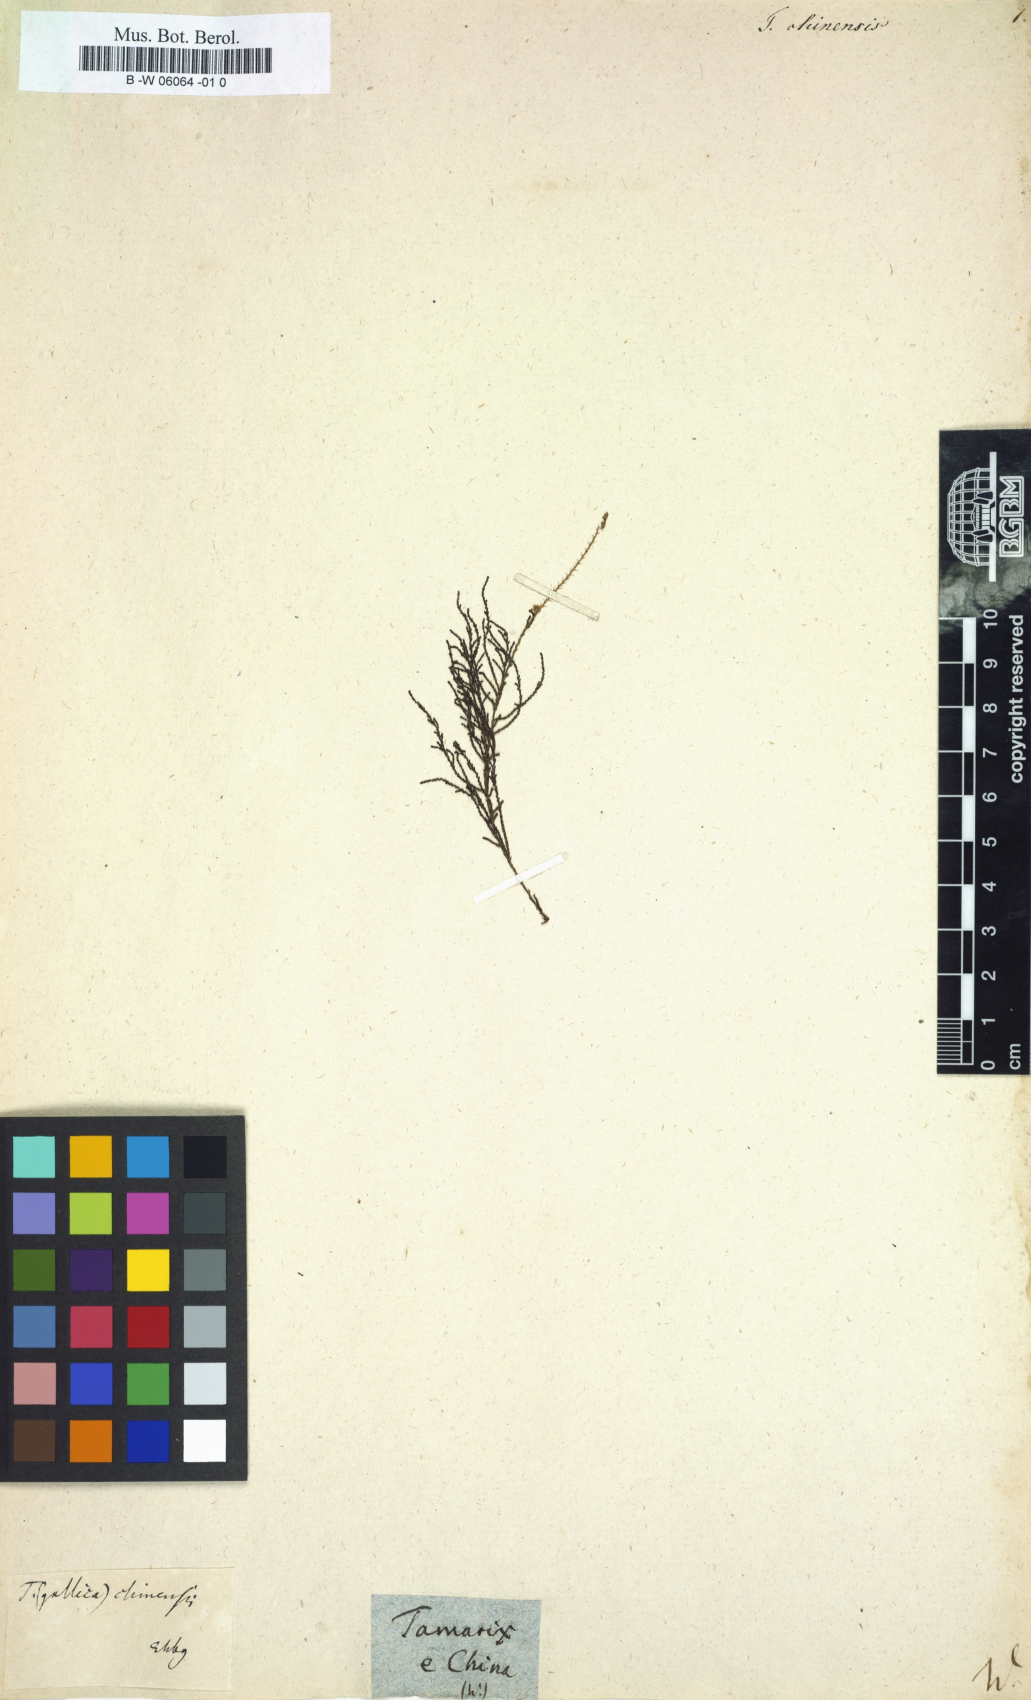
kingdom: Plantae
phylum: Tracheophyta
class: Magnoliopsida
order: Caryophyllales
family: Tamaricaceae
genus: Tamarix
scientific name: Tamarix chinensis
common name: Chinese tamarisk
